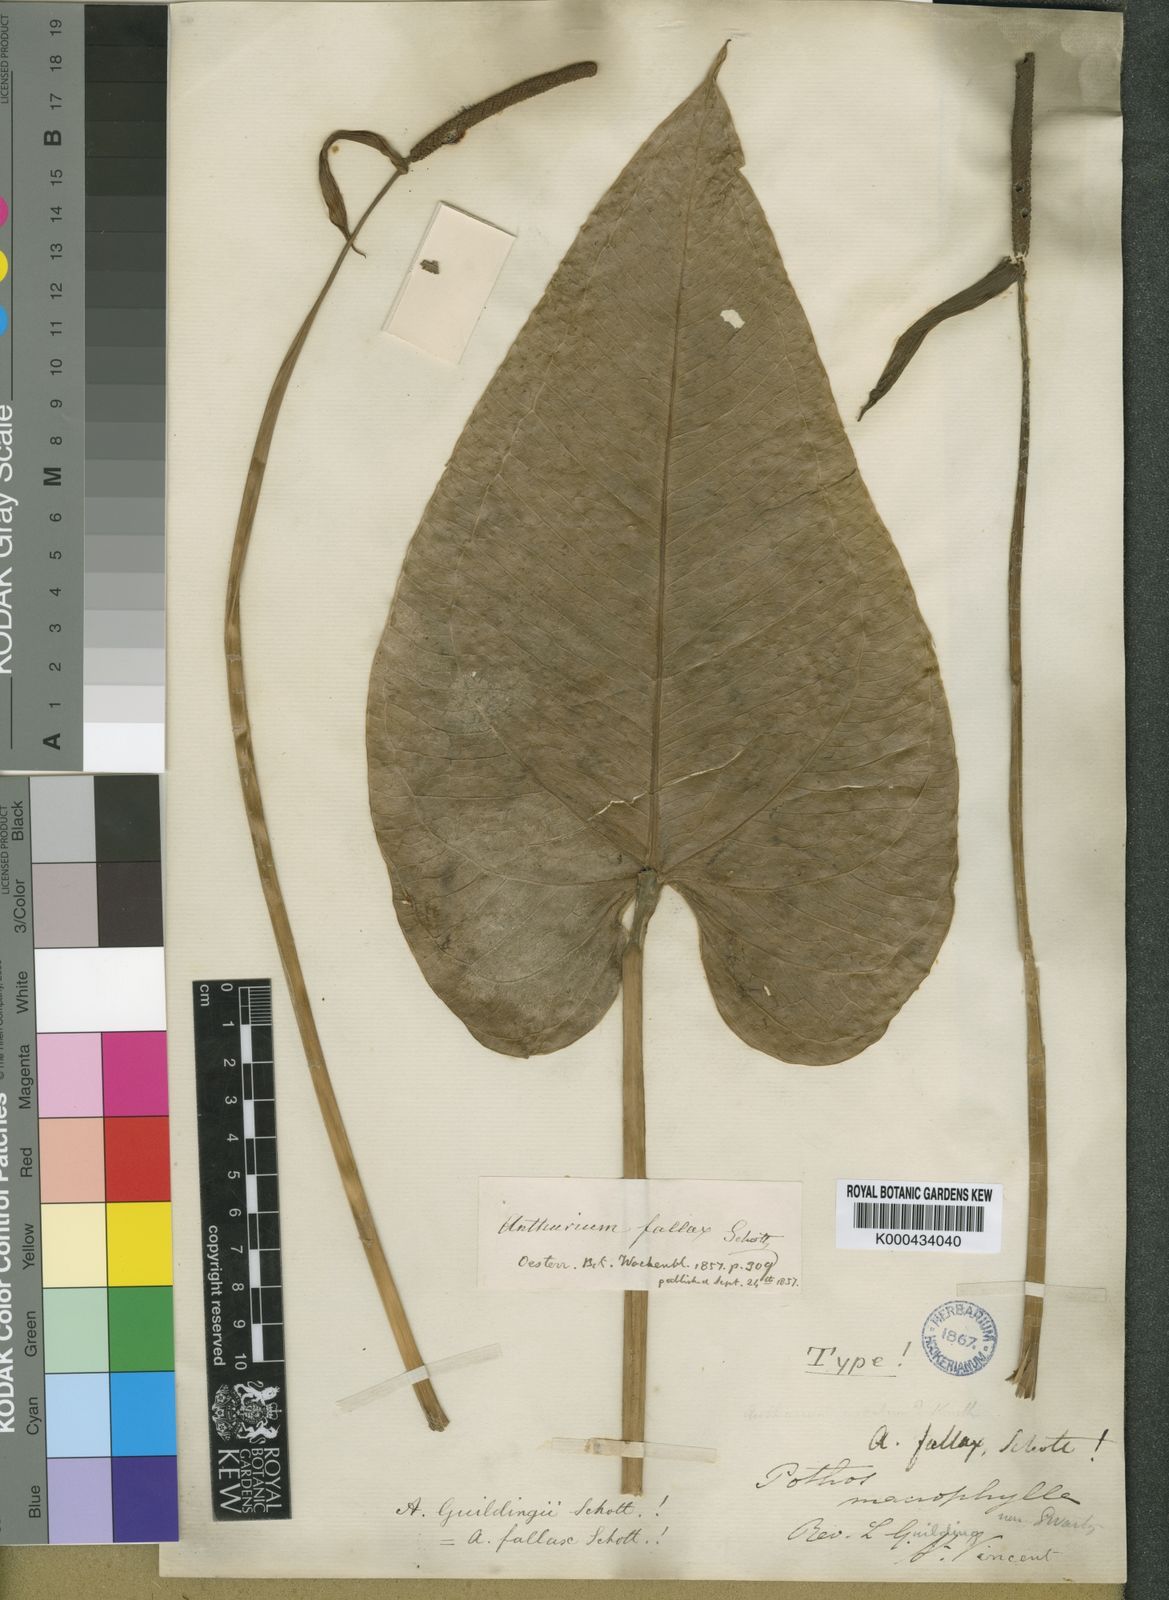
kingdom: Plantae
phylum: Tracheophyta
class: Liliopsida
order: Alismatales
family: Araceae
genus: Anthurium
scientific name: Anthurium cordatum
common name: Monkey tail
